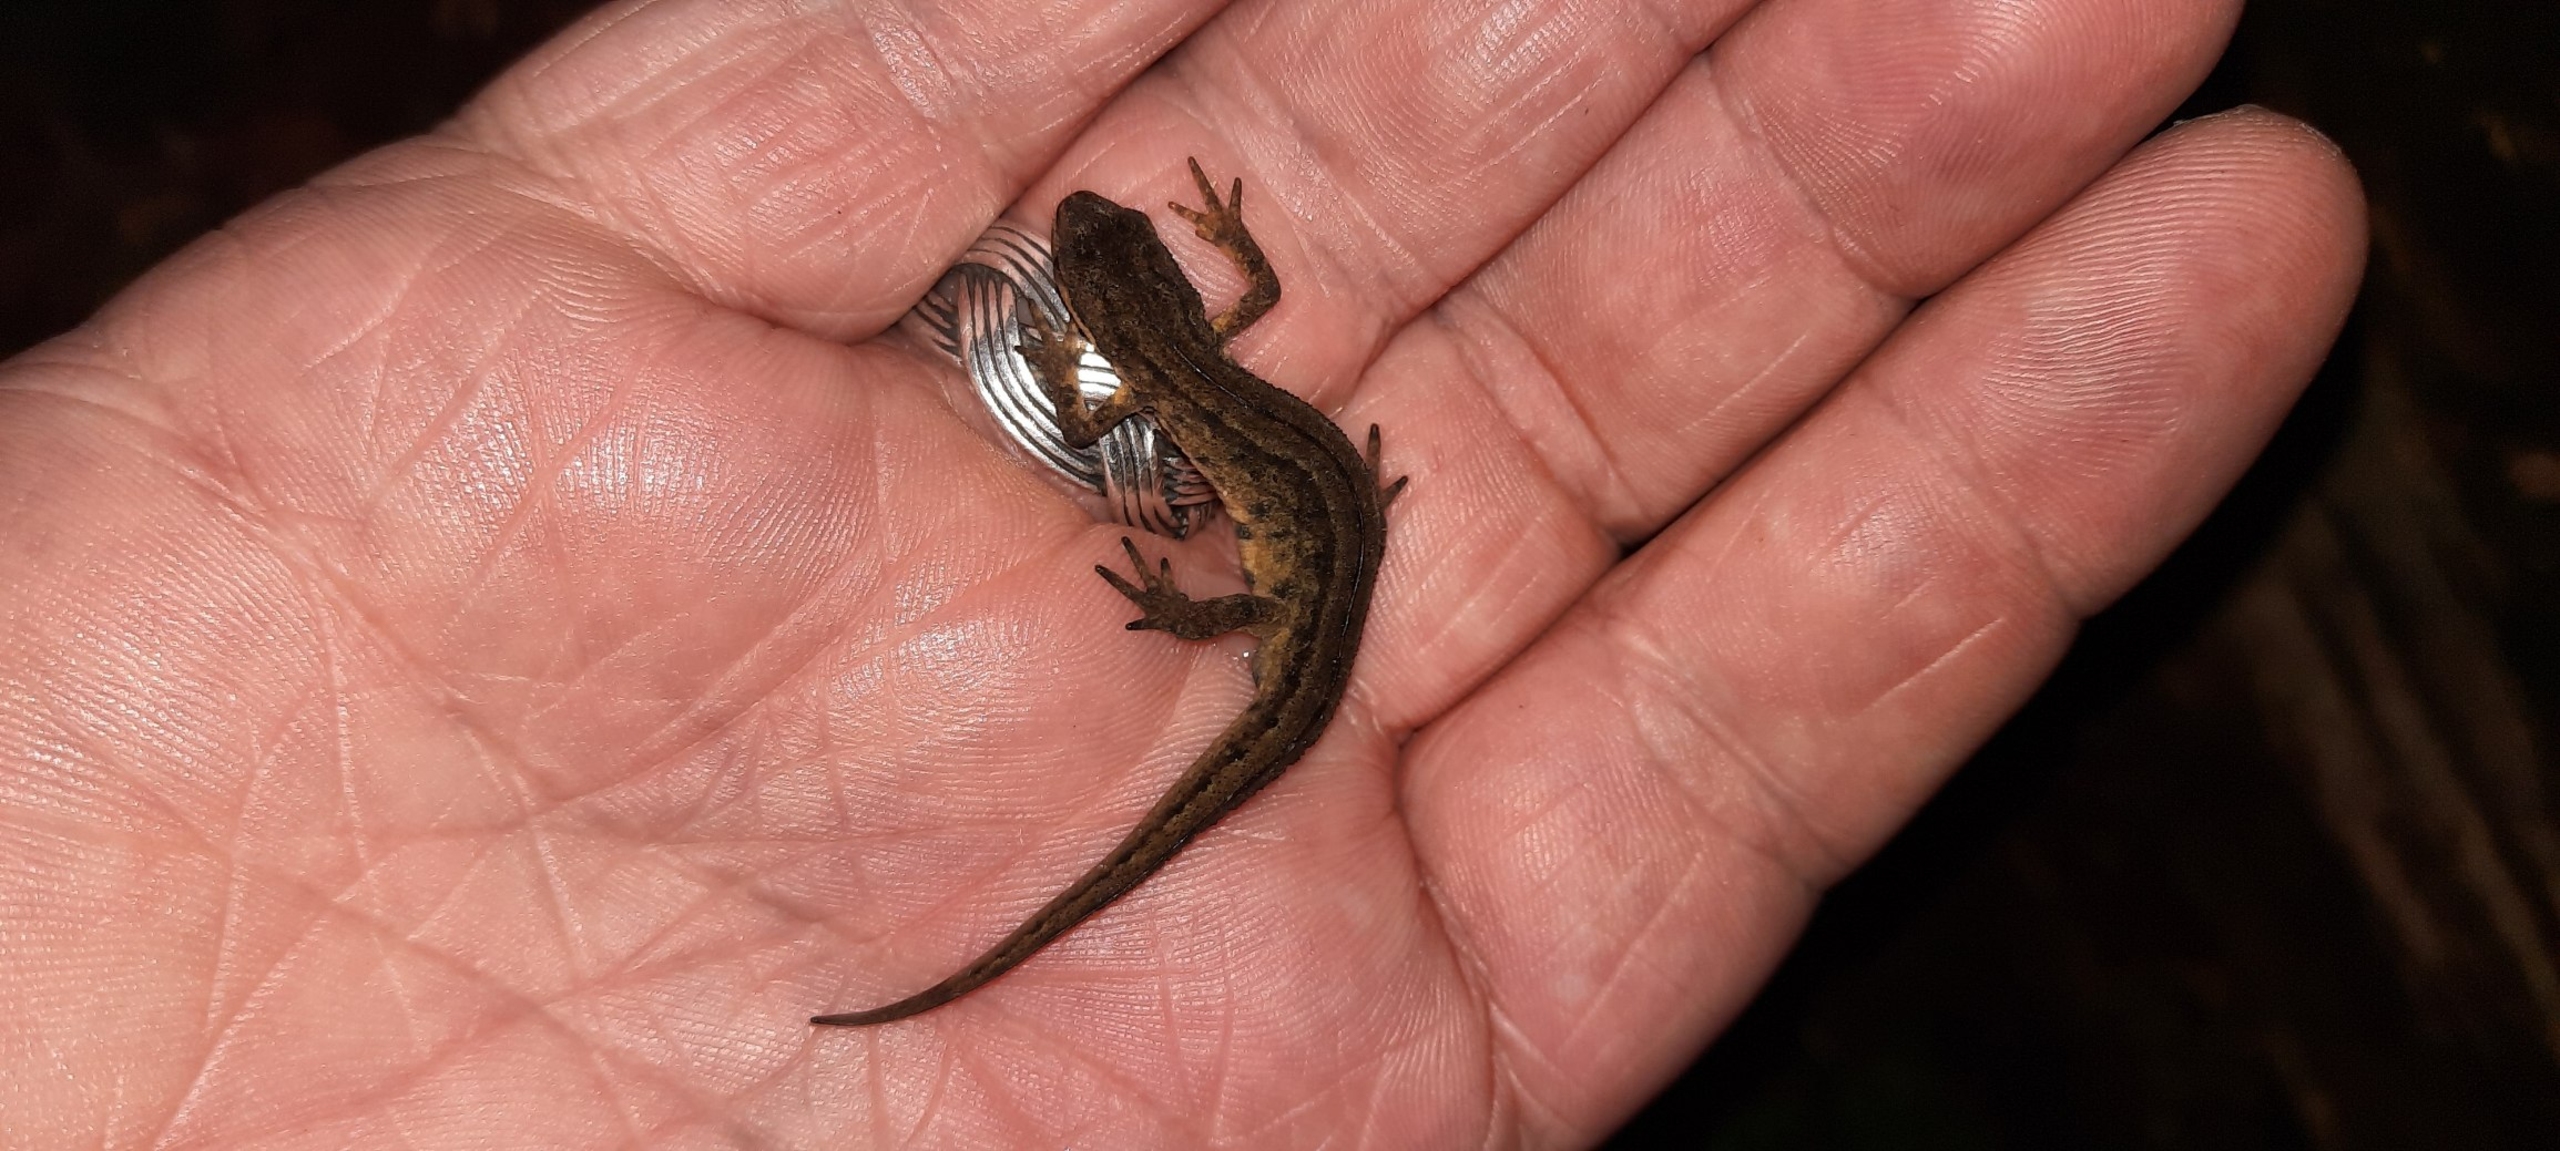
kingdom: Animalia
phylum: Chordata
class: Amphibia
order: Caudata
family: Salamandridae
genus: Lissotriton
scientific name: Lissotriton vulgaris
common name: Lille vandsalamander
